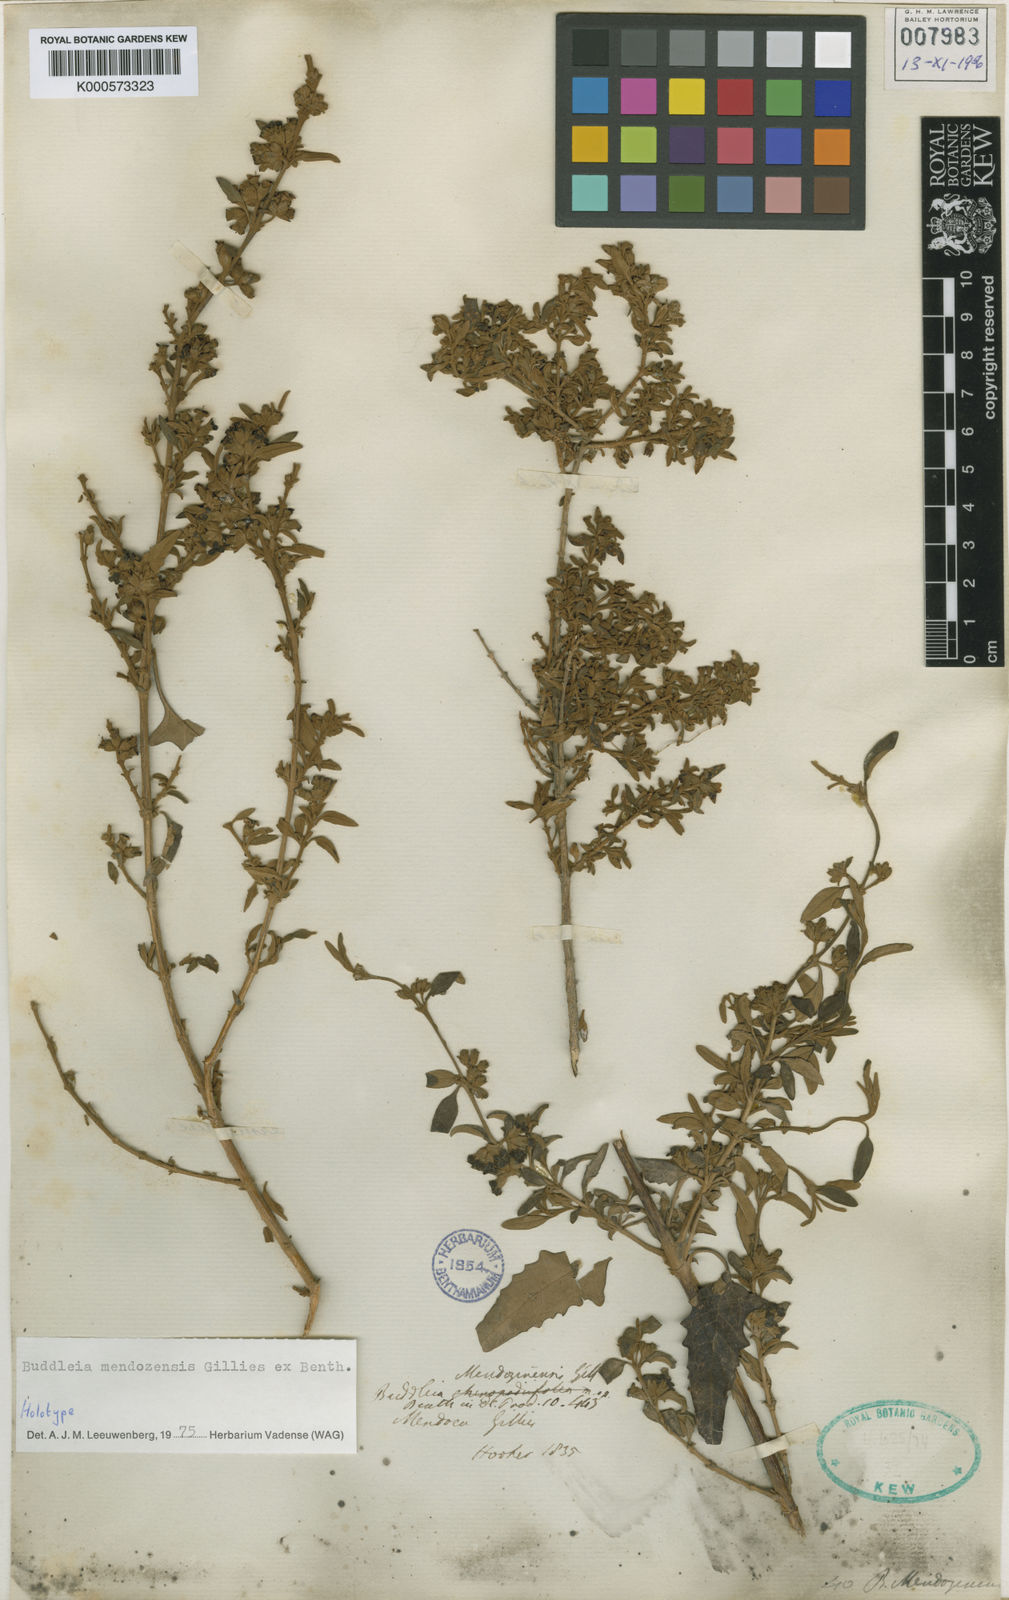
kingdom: Plantae
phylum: Tracheophyta
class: Magnoliopsida
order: Lamiales
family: Scrophulariaceae
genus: Buddleja
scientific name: Buddleja
